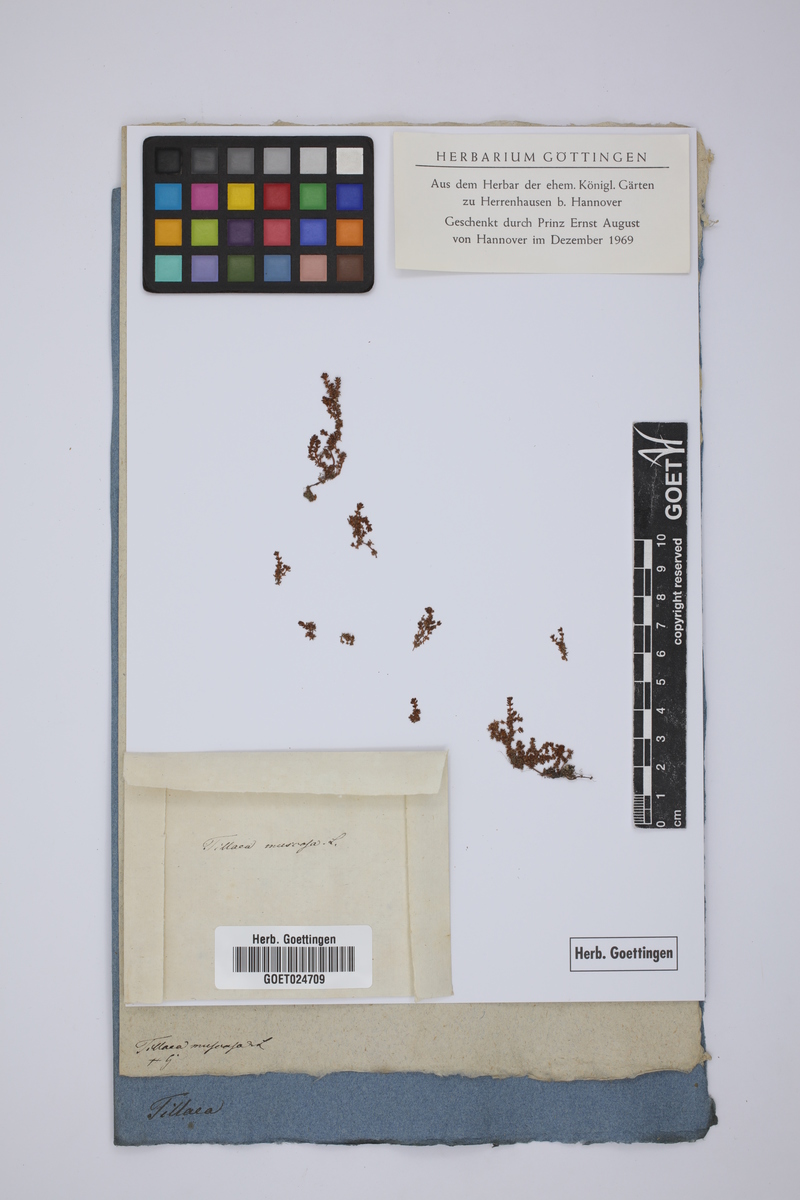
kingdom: Plantae
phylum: Tracheophyta
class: Magnoliopsida
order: Saxifragales
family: Crassulaceae
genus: Crassula
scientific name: Crassula tillaea
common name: Mossy stonecrop
